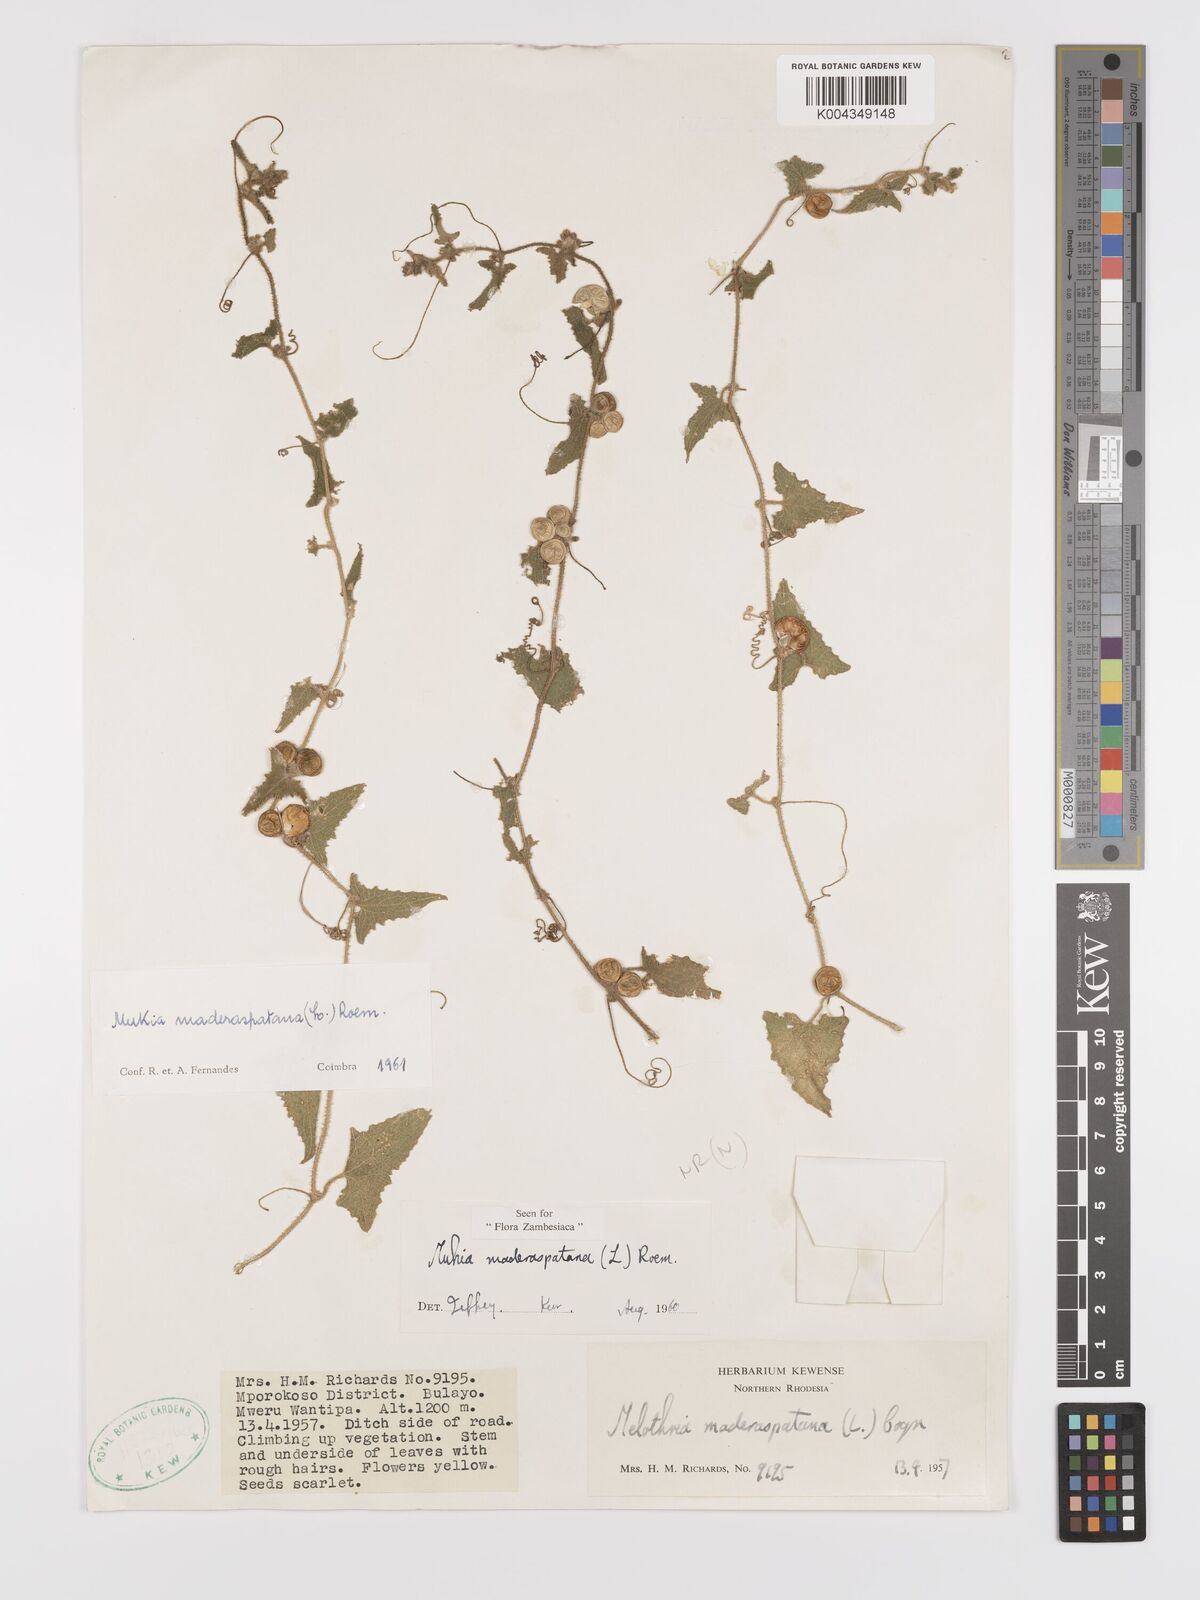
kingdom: Plantae
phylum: Tracheophyta
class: Magnoliopsida
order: Cucurbitales
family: Cucurbitaceae
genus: Cucumis
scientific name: Cucumis maderaspatanus
